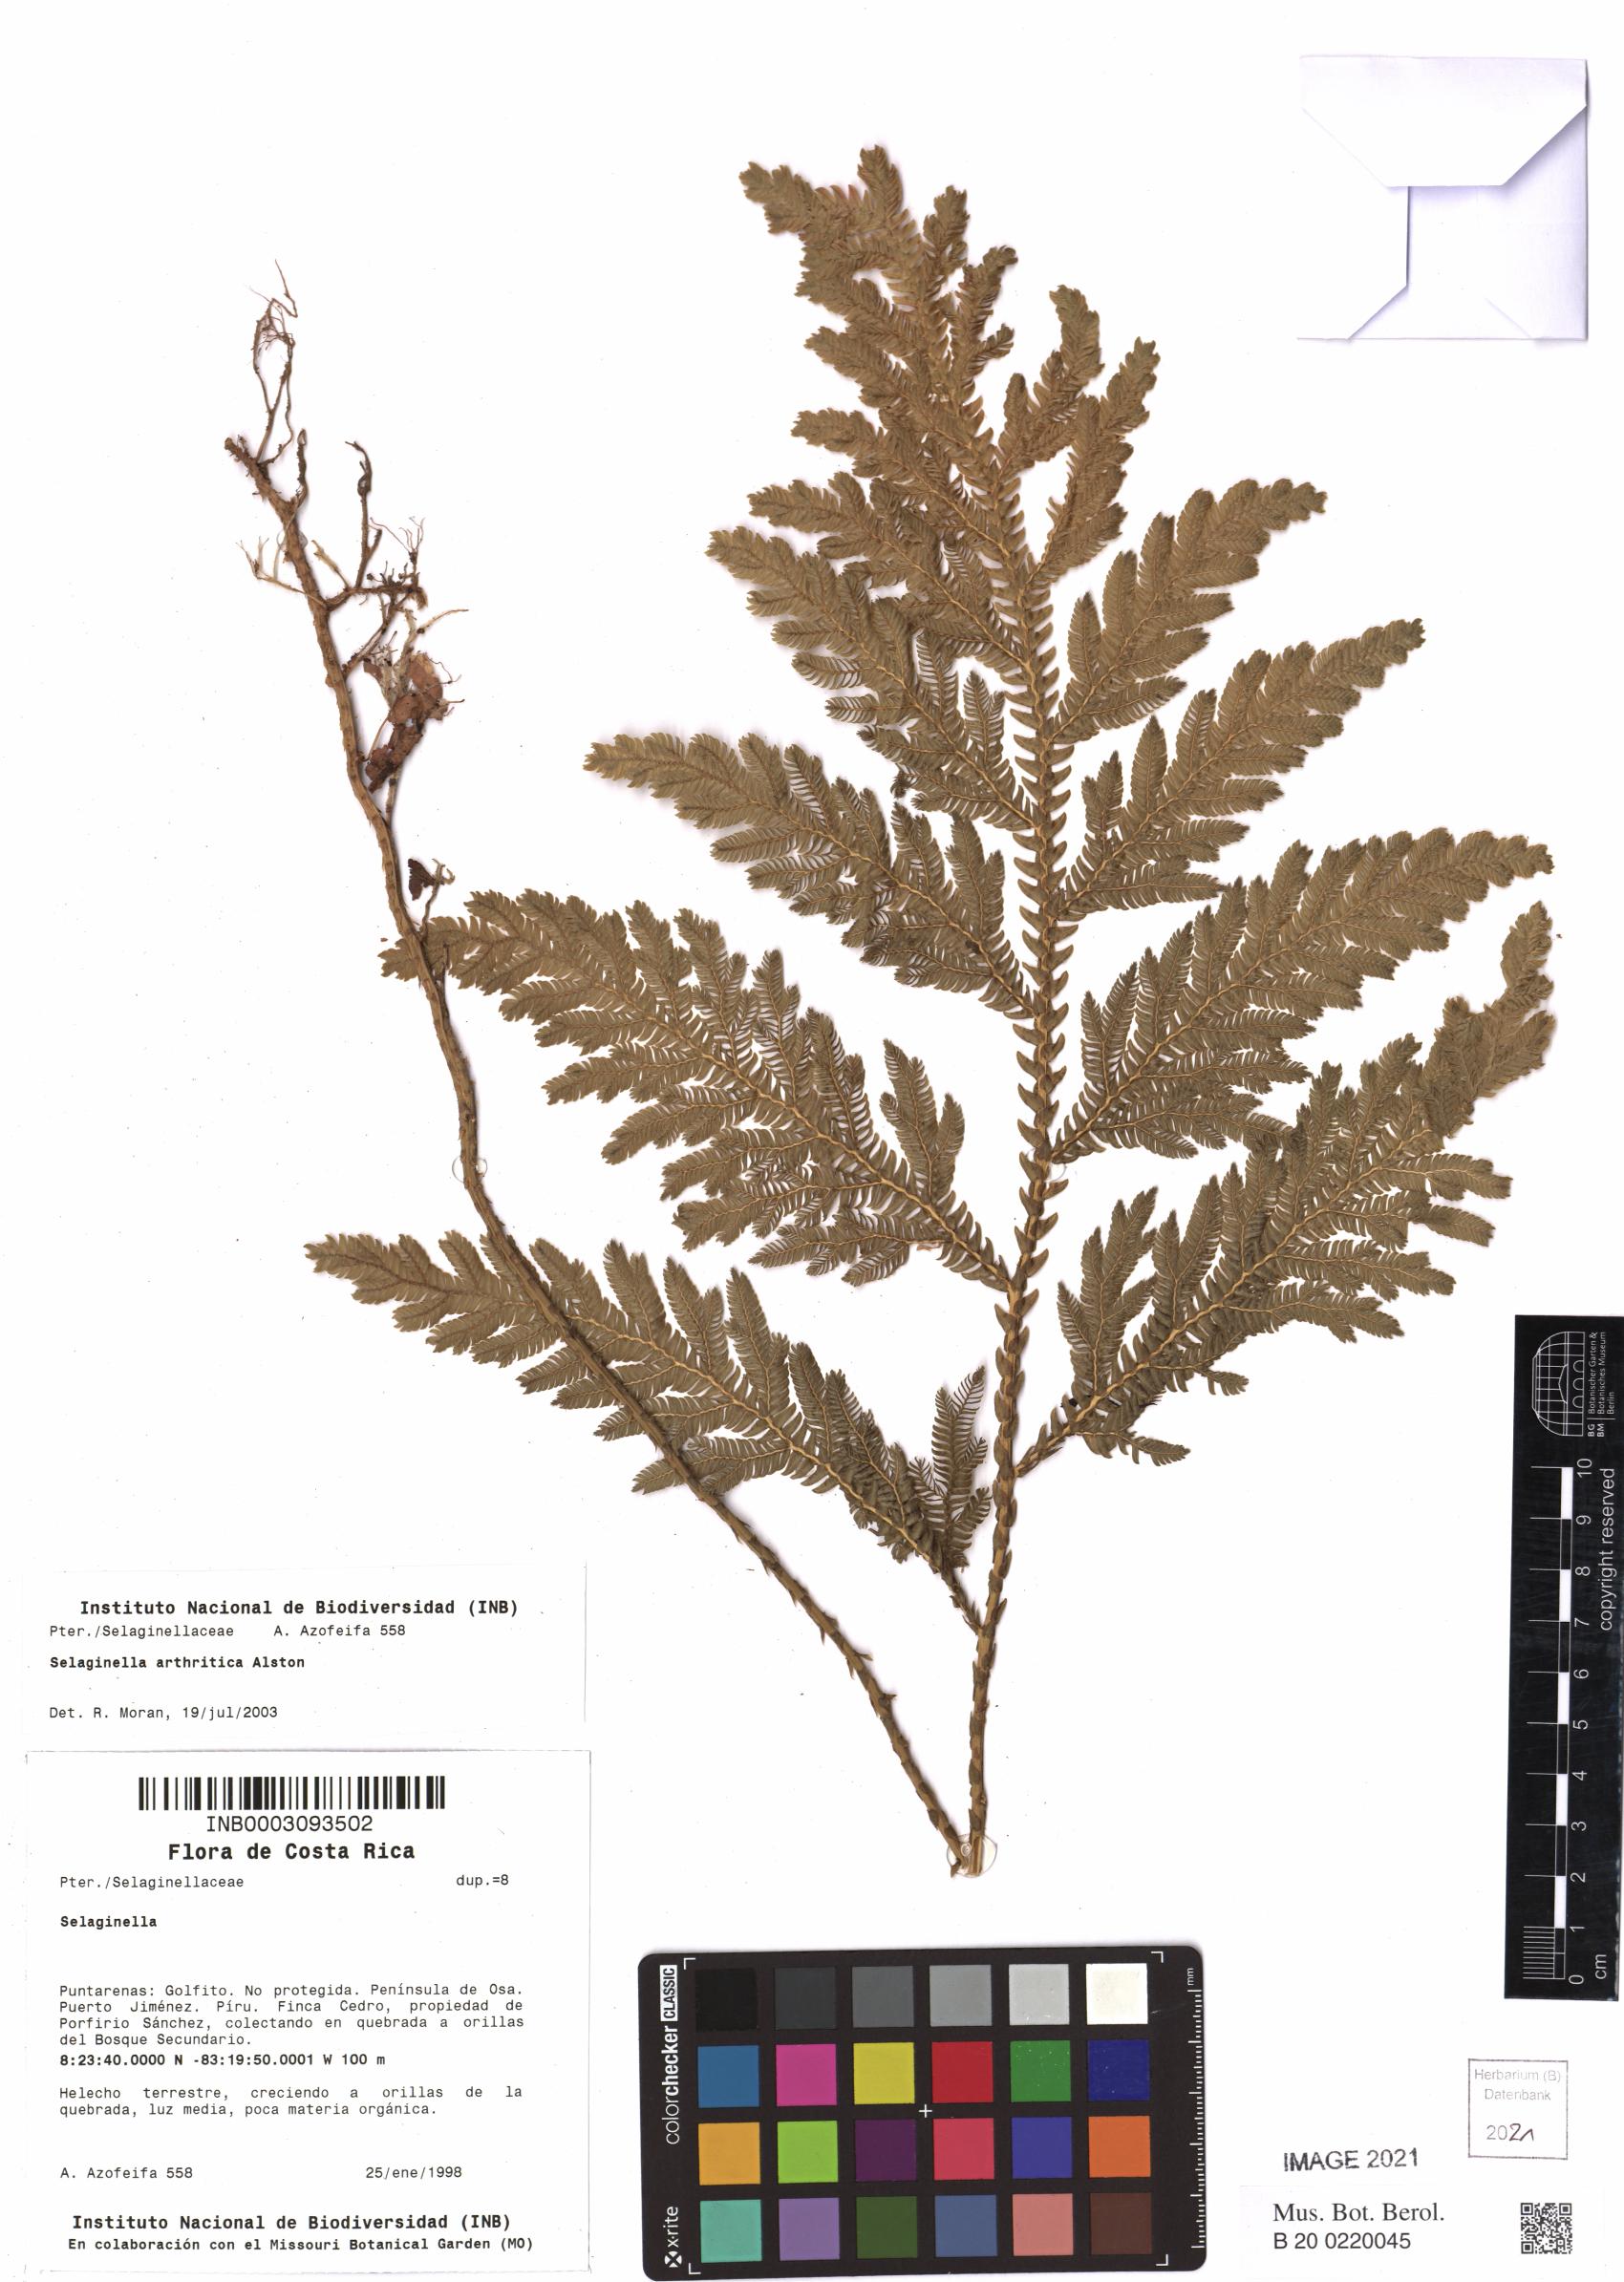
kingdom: Plantae
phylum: Tracheophyta
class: Lycopodiopsida
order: Selaginellales
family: Selaginellaceae
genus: Selaginella
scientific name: Selaginella arthritica
